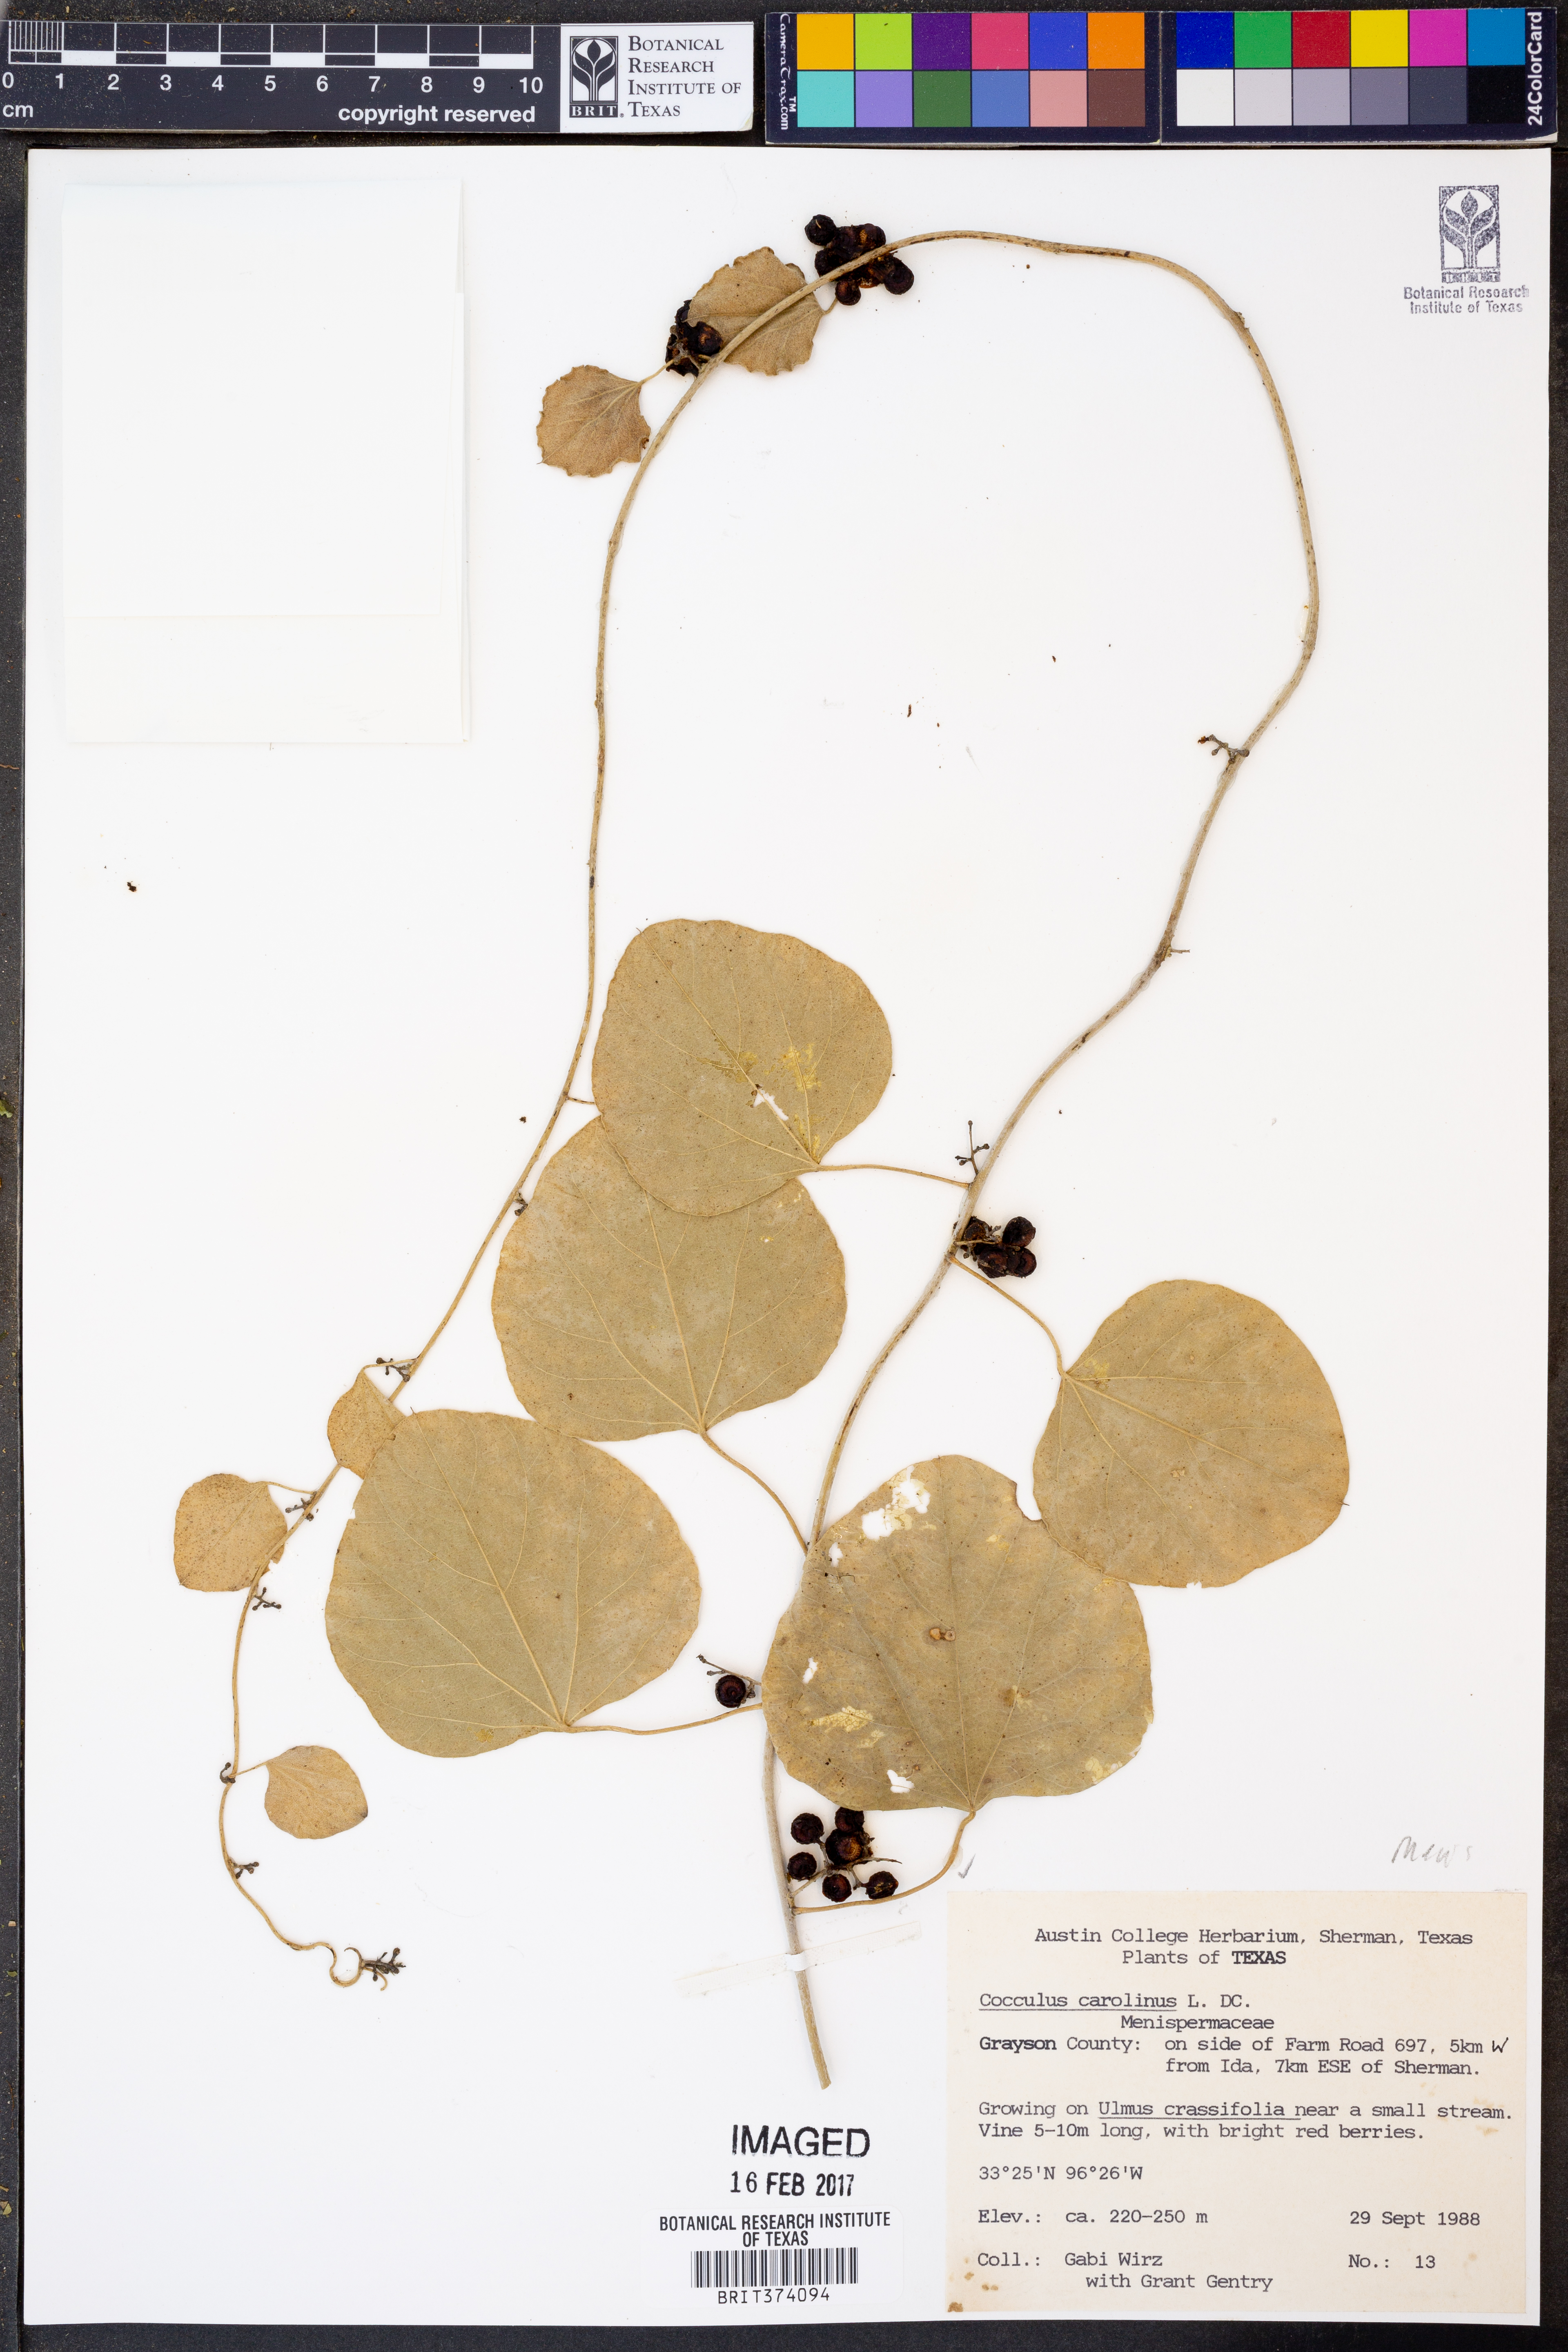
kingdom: Plantae
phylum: Tracheophyta
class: Magnoliopsida
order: Ranunculales
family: Menispermaceae
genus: Cocculus
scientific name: Cocculus carolinus
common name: Carolina moonseed
